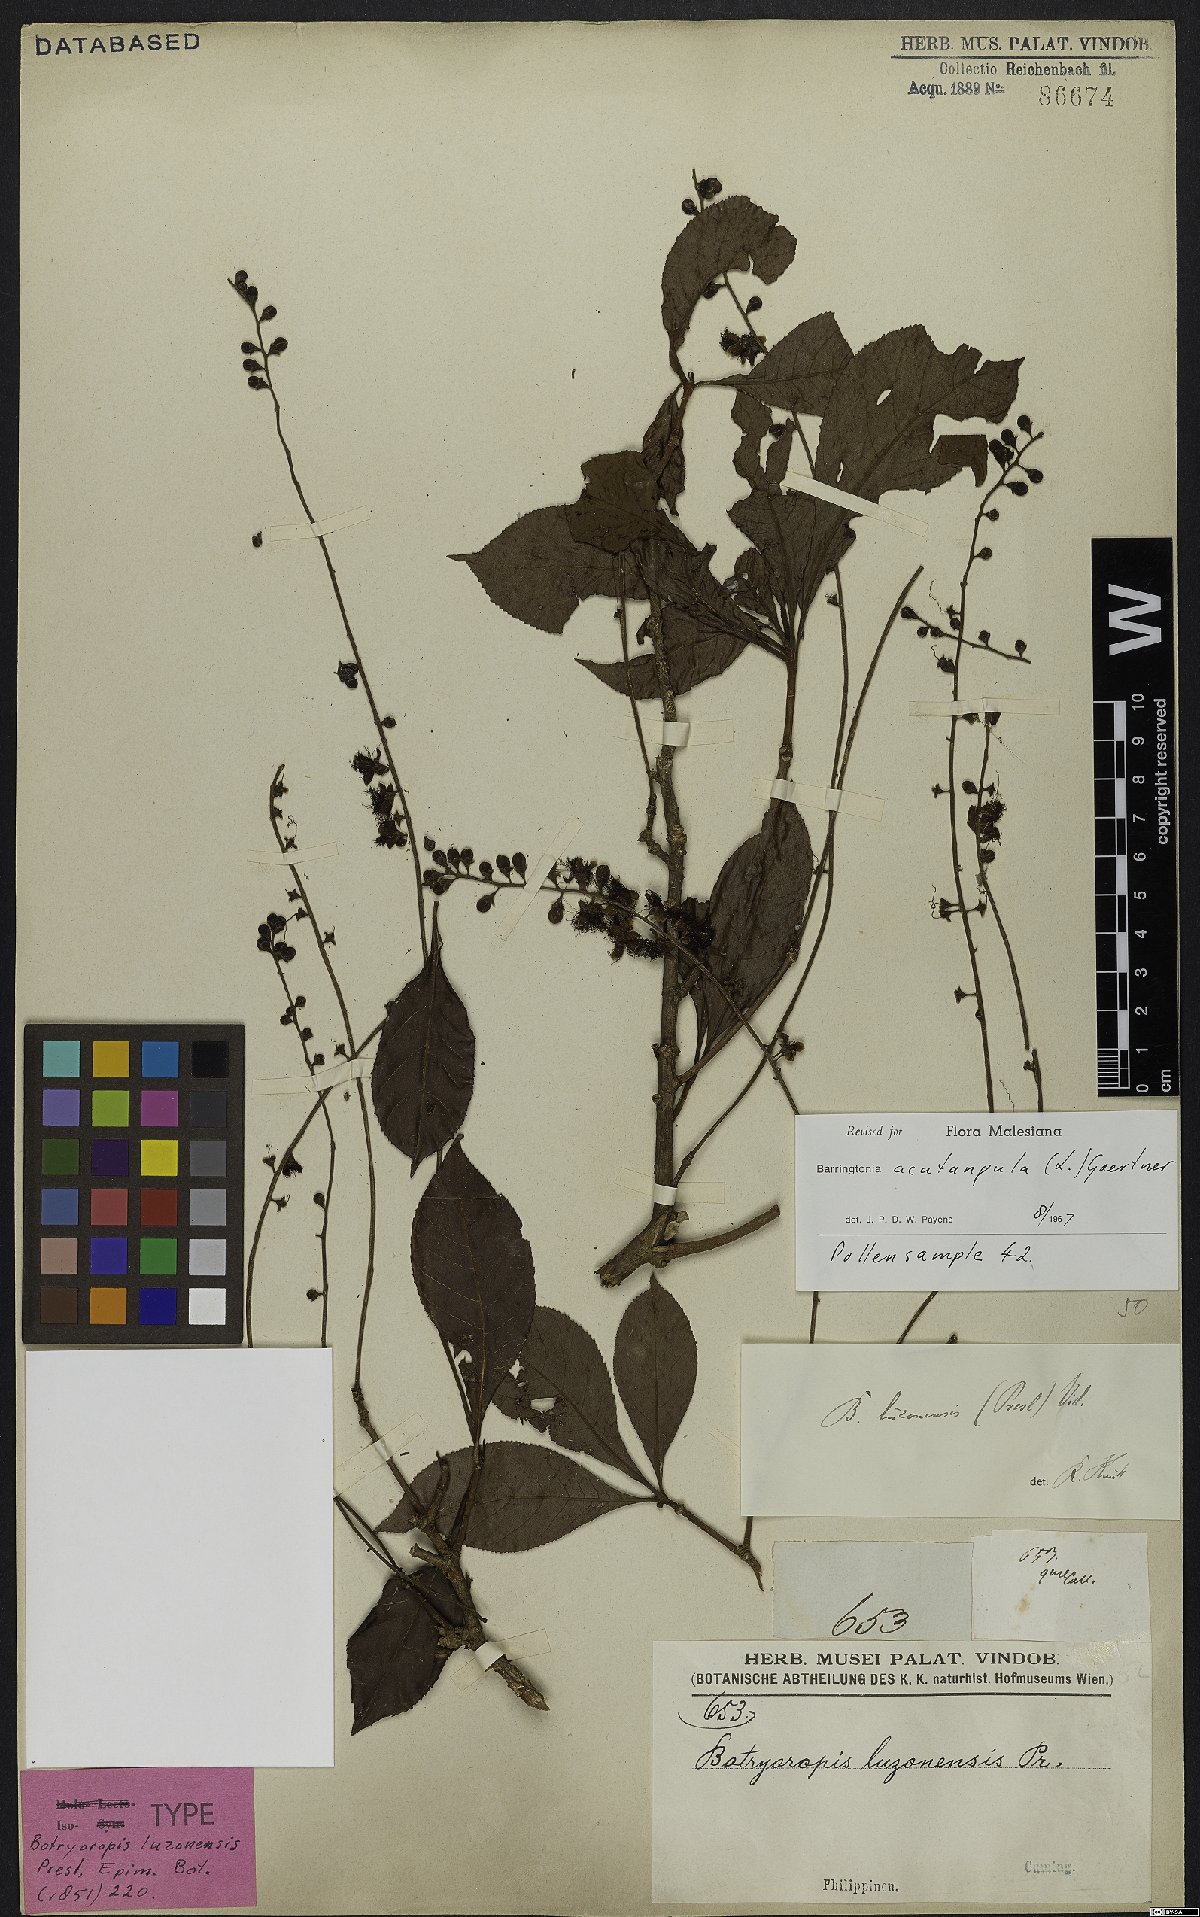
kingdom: Plantae
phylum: Tracheophyta
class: Magnoliopsida
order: Ericales
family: Lecythidaceae
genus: Barringtonia
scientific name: Barringtonia acutangula
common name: Freshwater mangrove
